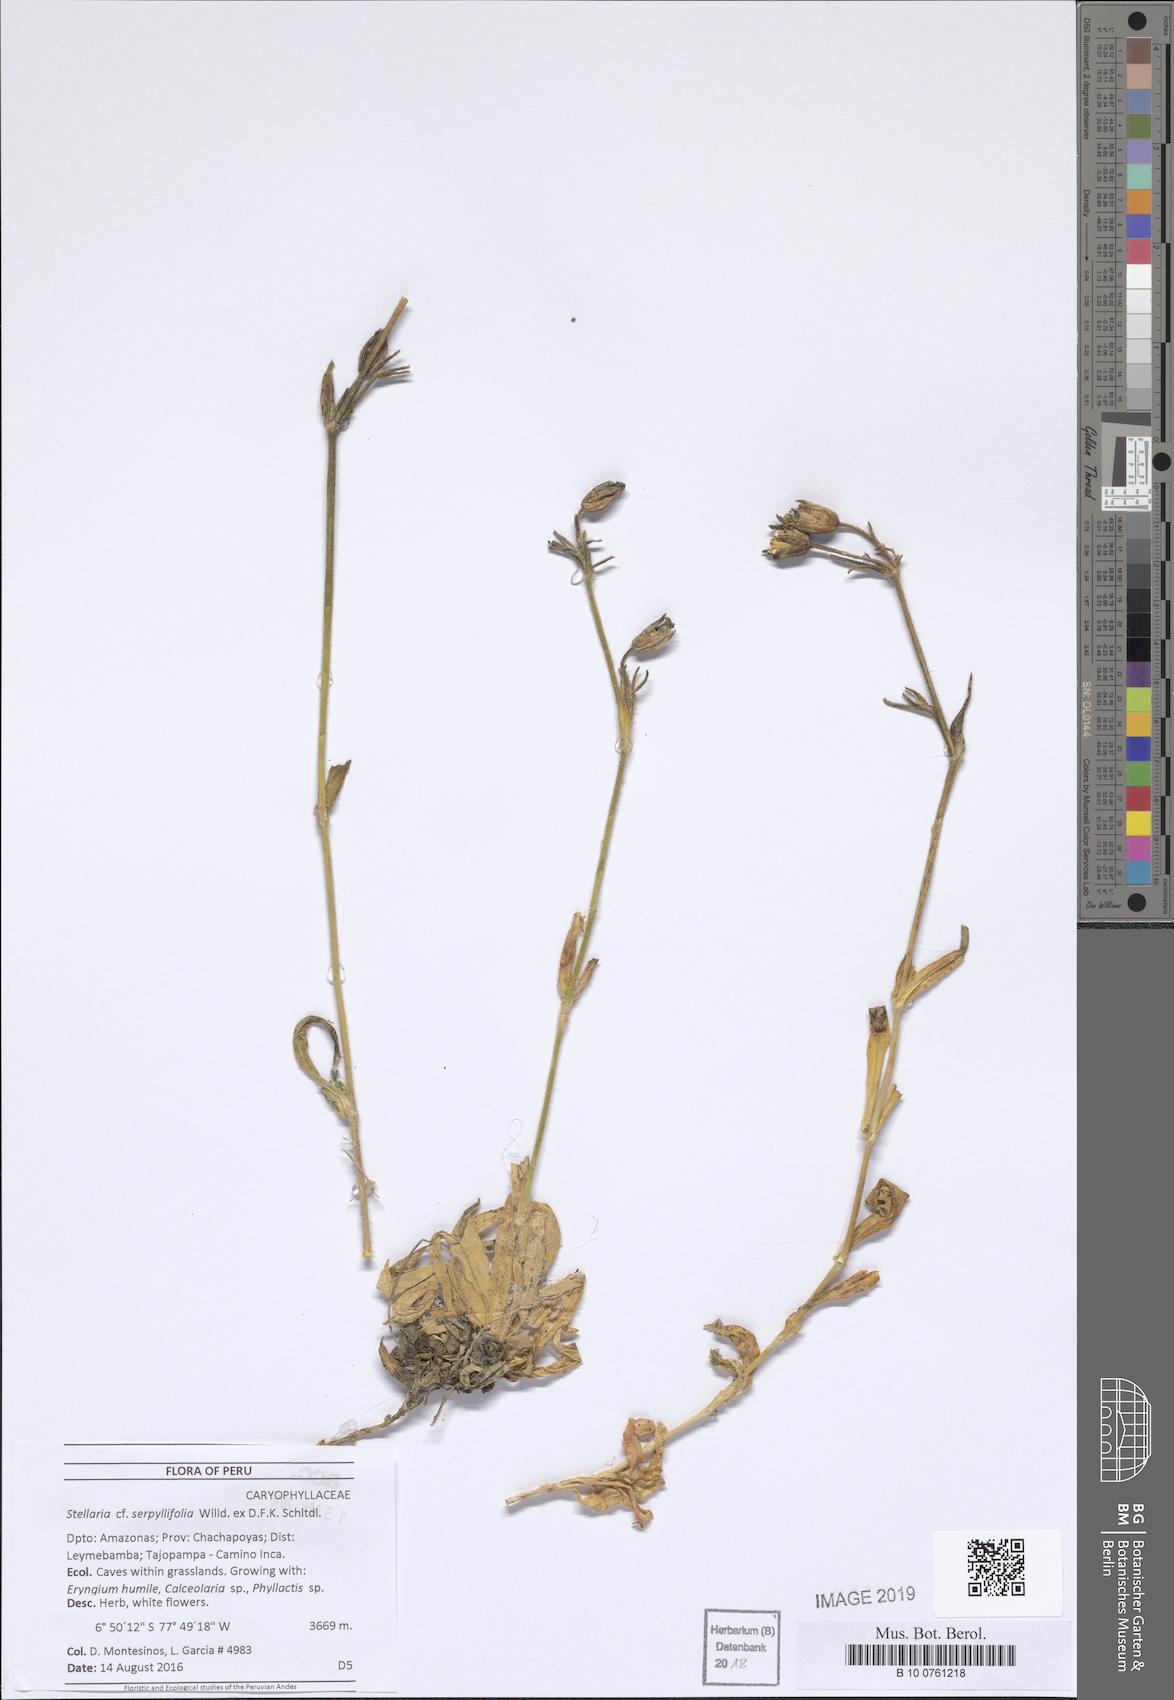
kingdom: Plantae
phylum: Tracheophyta
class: Magnoliopsida
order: Caryophyllales
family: Caryophyllaceae
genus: Silene
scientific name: Silene thysanodes
